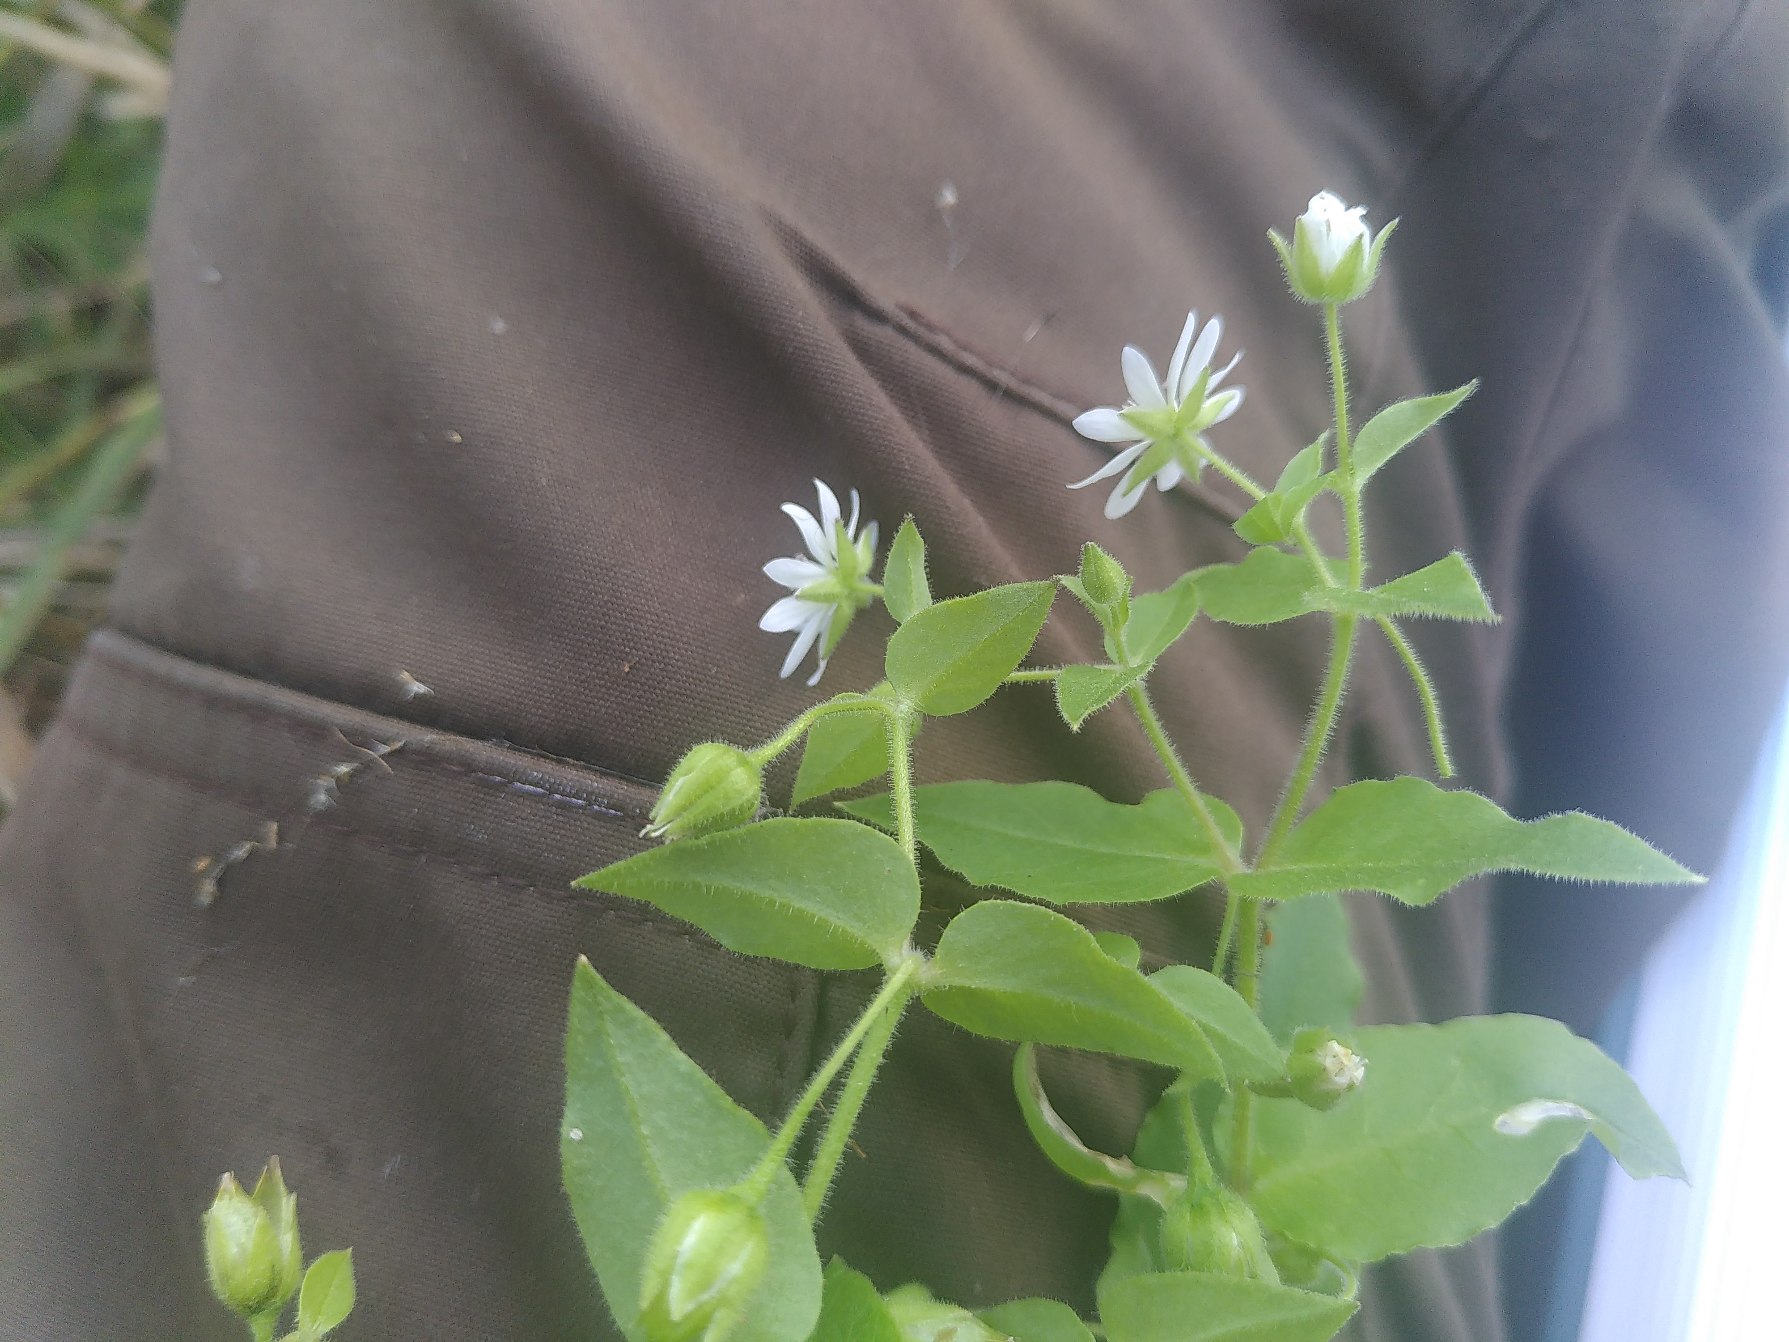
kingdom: Plantae
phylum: Tracheophyta
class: Magnoliopsida
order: Caryophyllales
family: Caryophyllaceae
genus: Stellaria
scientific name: Stellaria aquatica
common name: Kløvkrone
